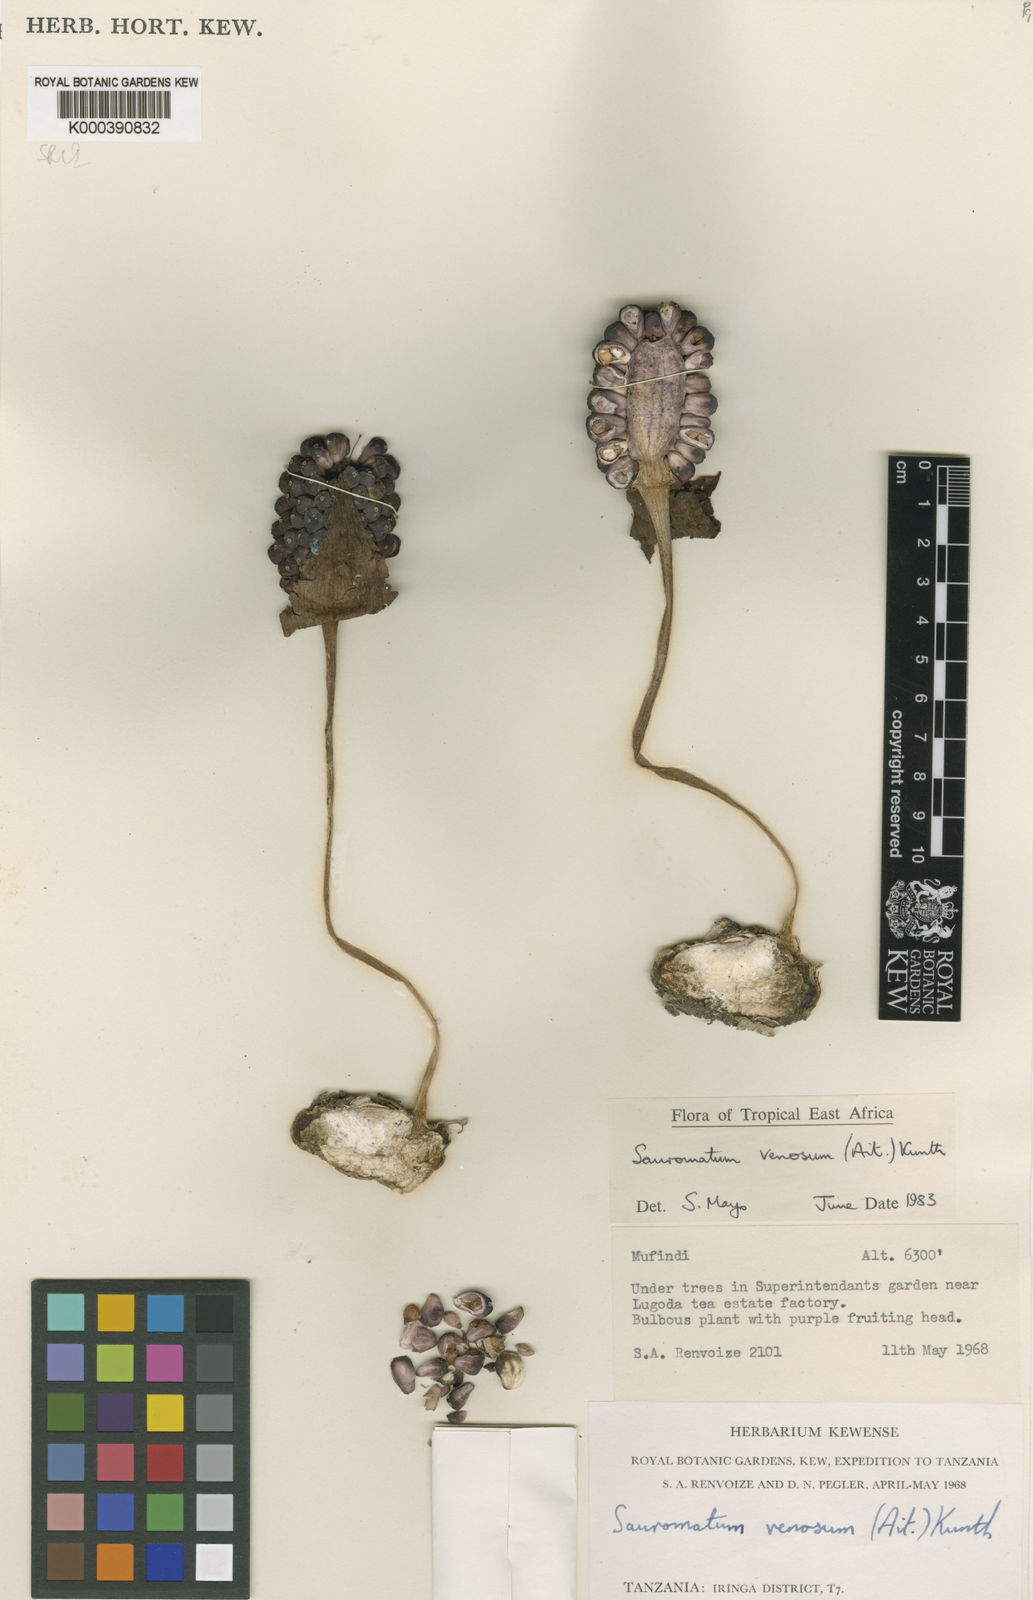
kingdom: Plantae
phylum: Tracheophyta
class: Liliopsida
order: Alismatales
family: Araceae
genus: Sauromatum
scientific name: Sauromatum venosum
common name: Voodoo lily
